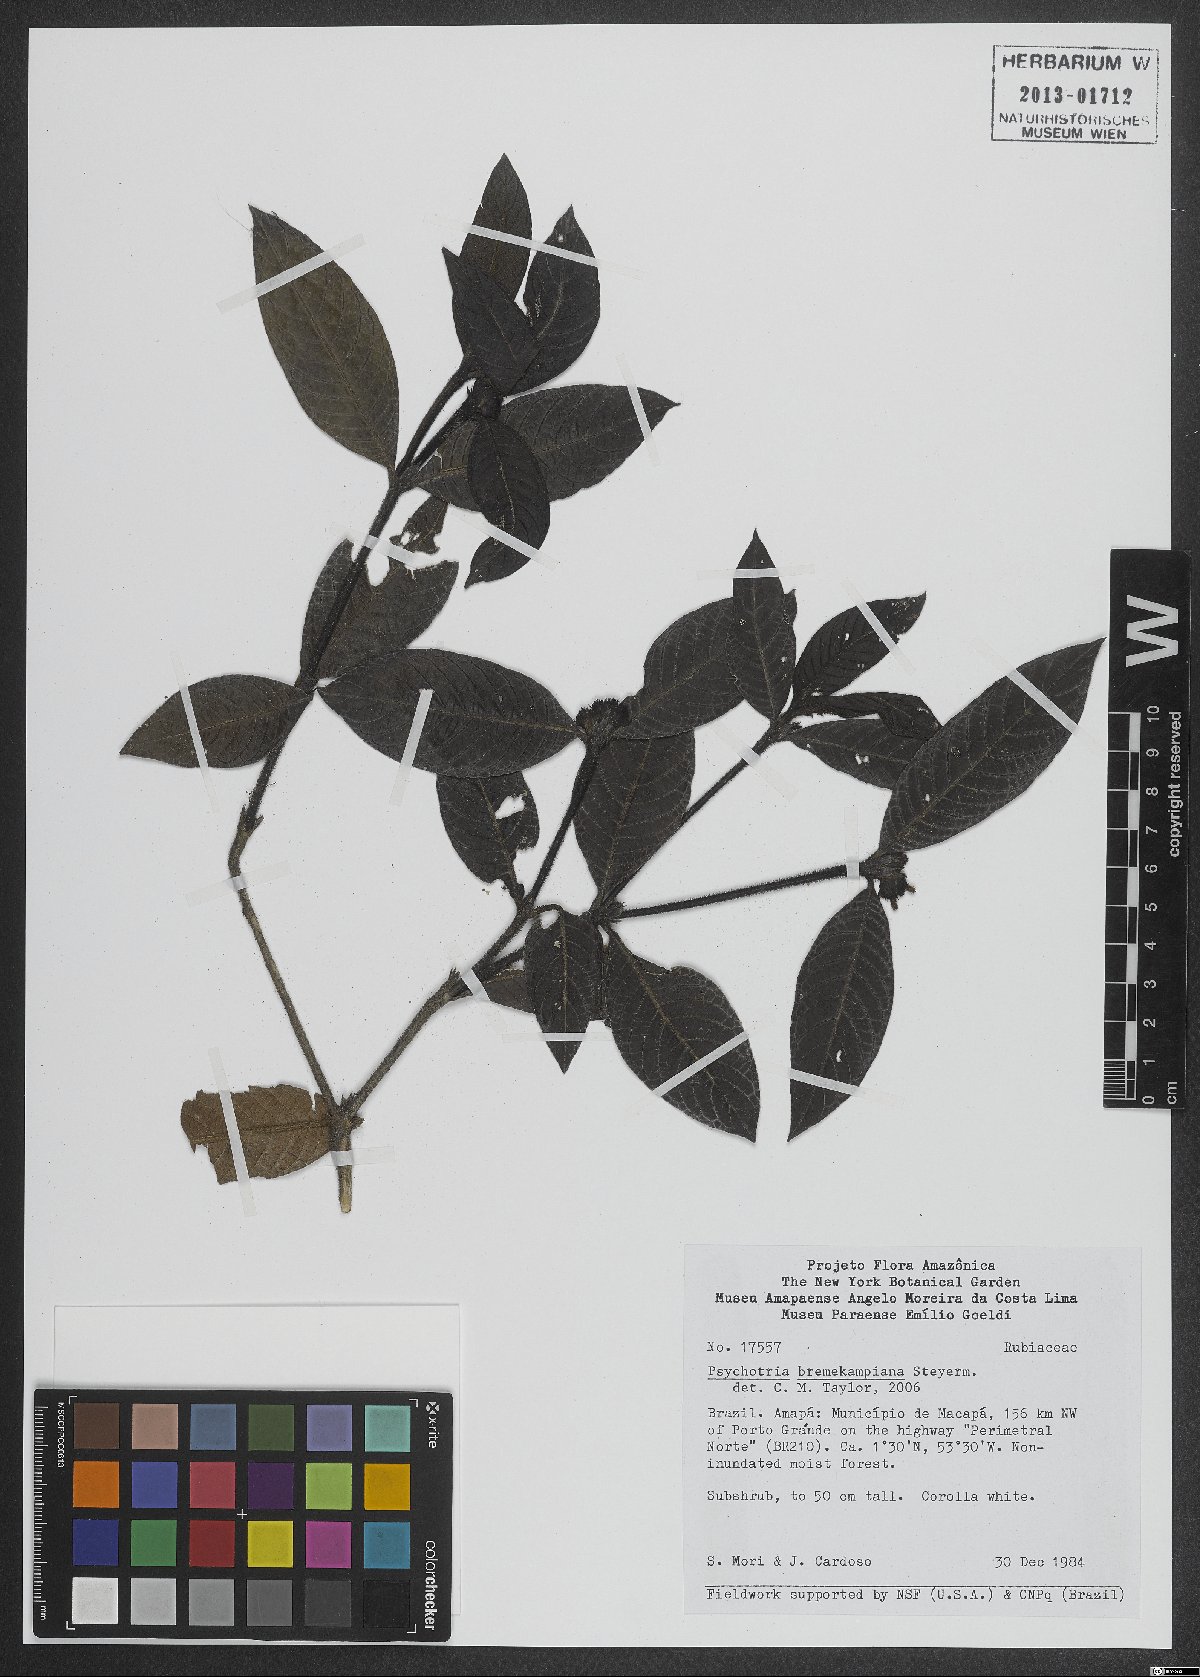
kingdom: Plantae
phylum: Tracheophyta
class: Magnoliopsida
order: Gentianales
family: Rubiaceae
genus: Palicourea
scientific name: Palicourea hirta
